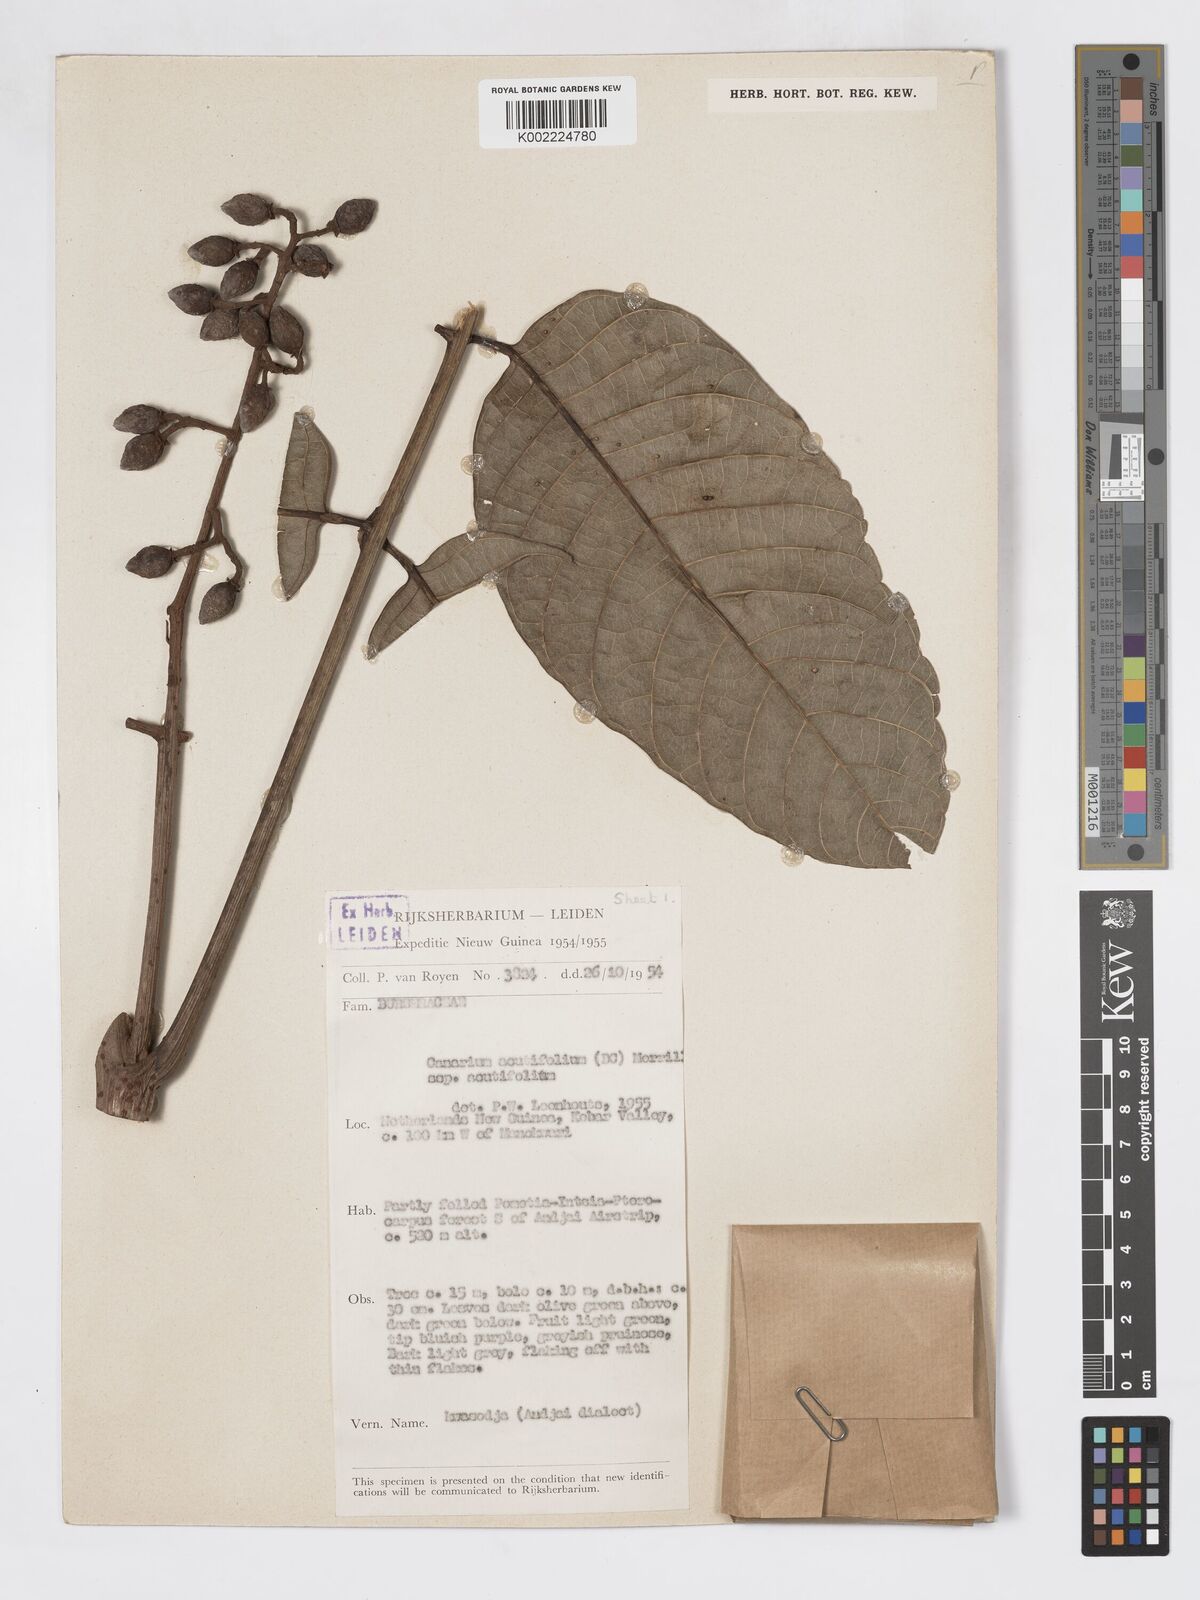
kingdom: Plantae
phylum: Tracheophyta
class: Magnoliopsida
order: Sapindales
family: Burseraceae
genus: Canarium
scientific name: Canarium acutifolium
